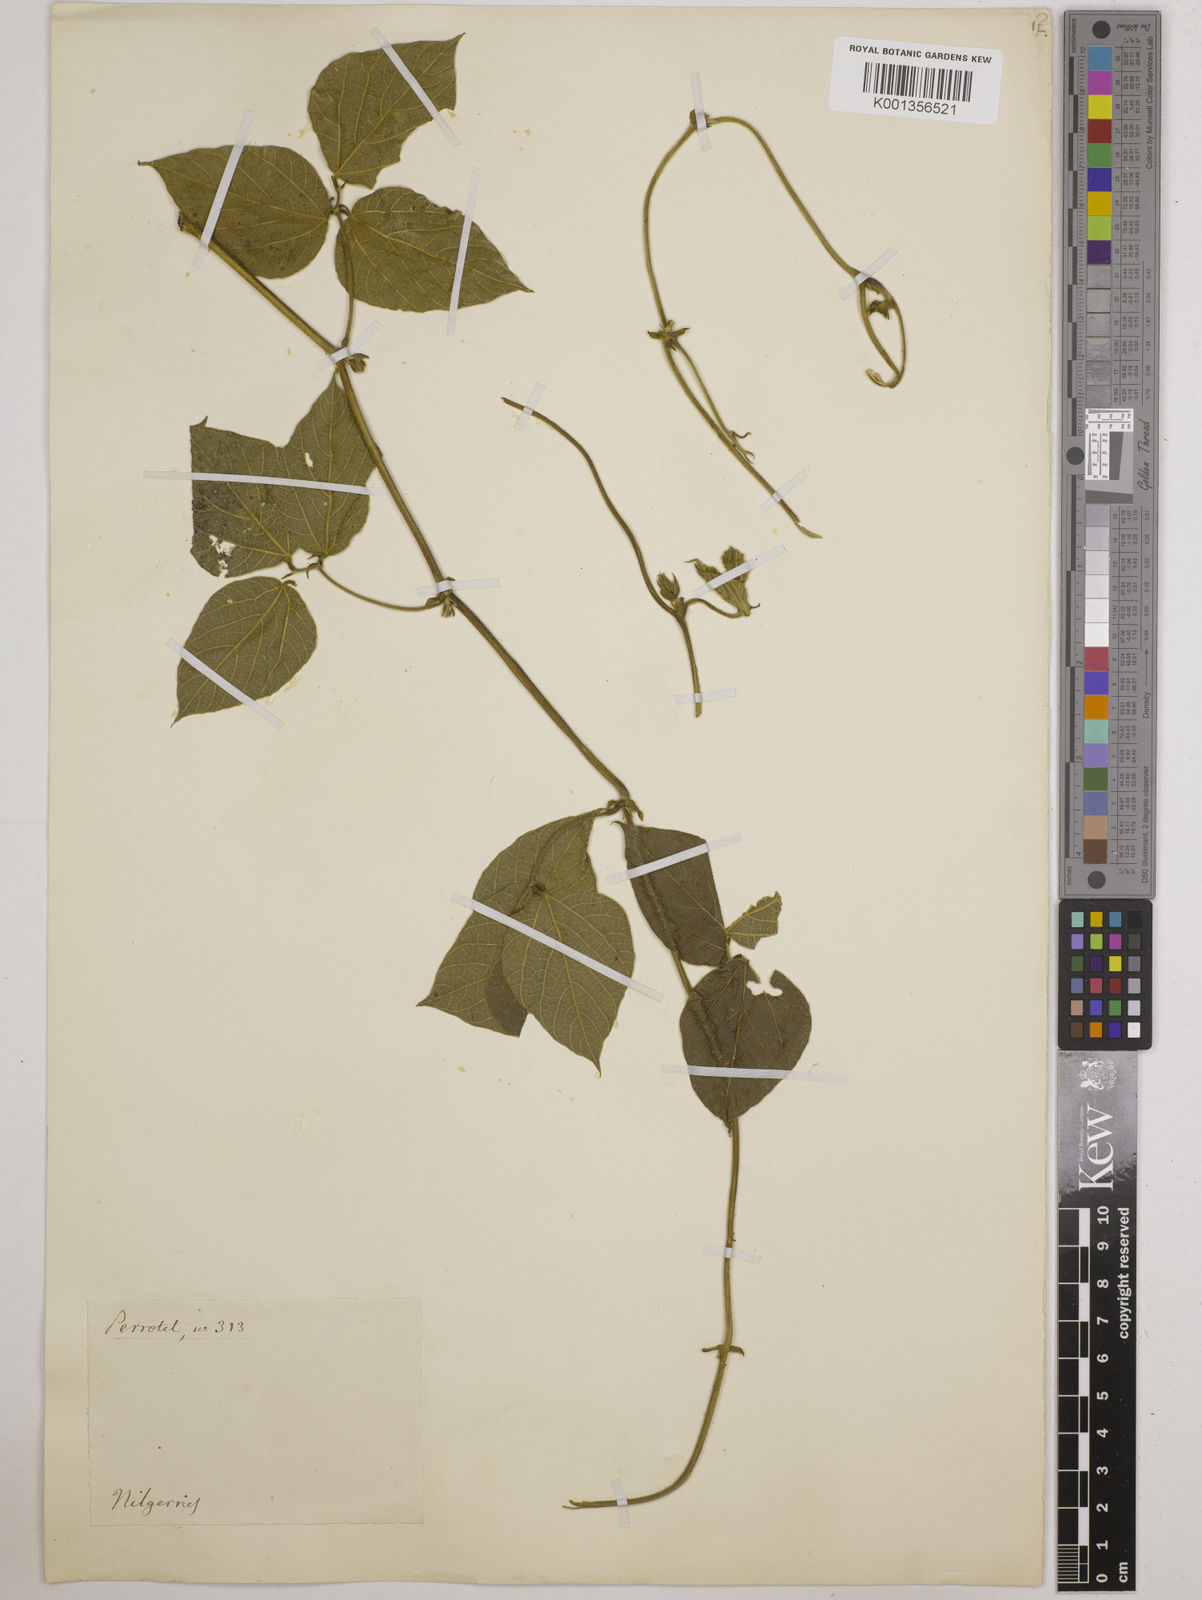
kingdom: Plantae
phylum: Tracheophyta
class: Magnoliopsida
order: Fabales
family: Fabaceae
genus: Vigna
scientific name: Vigna
